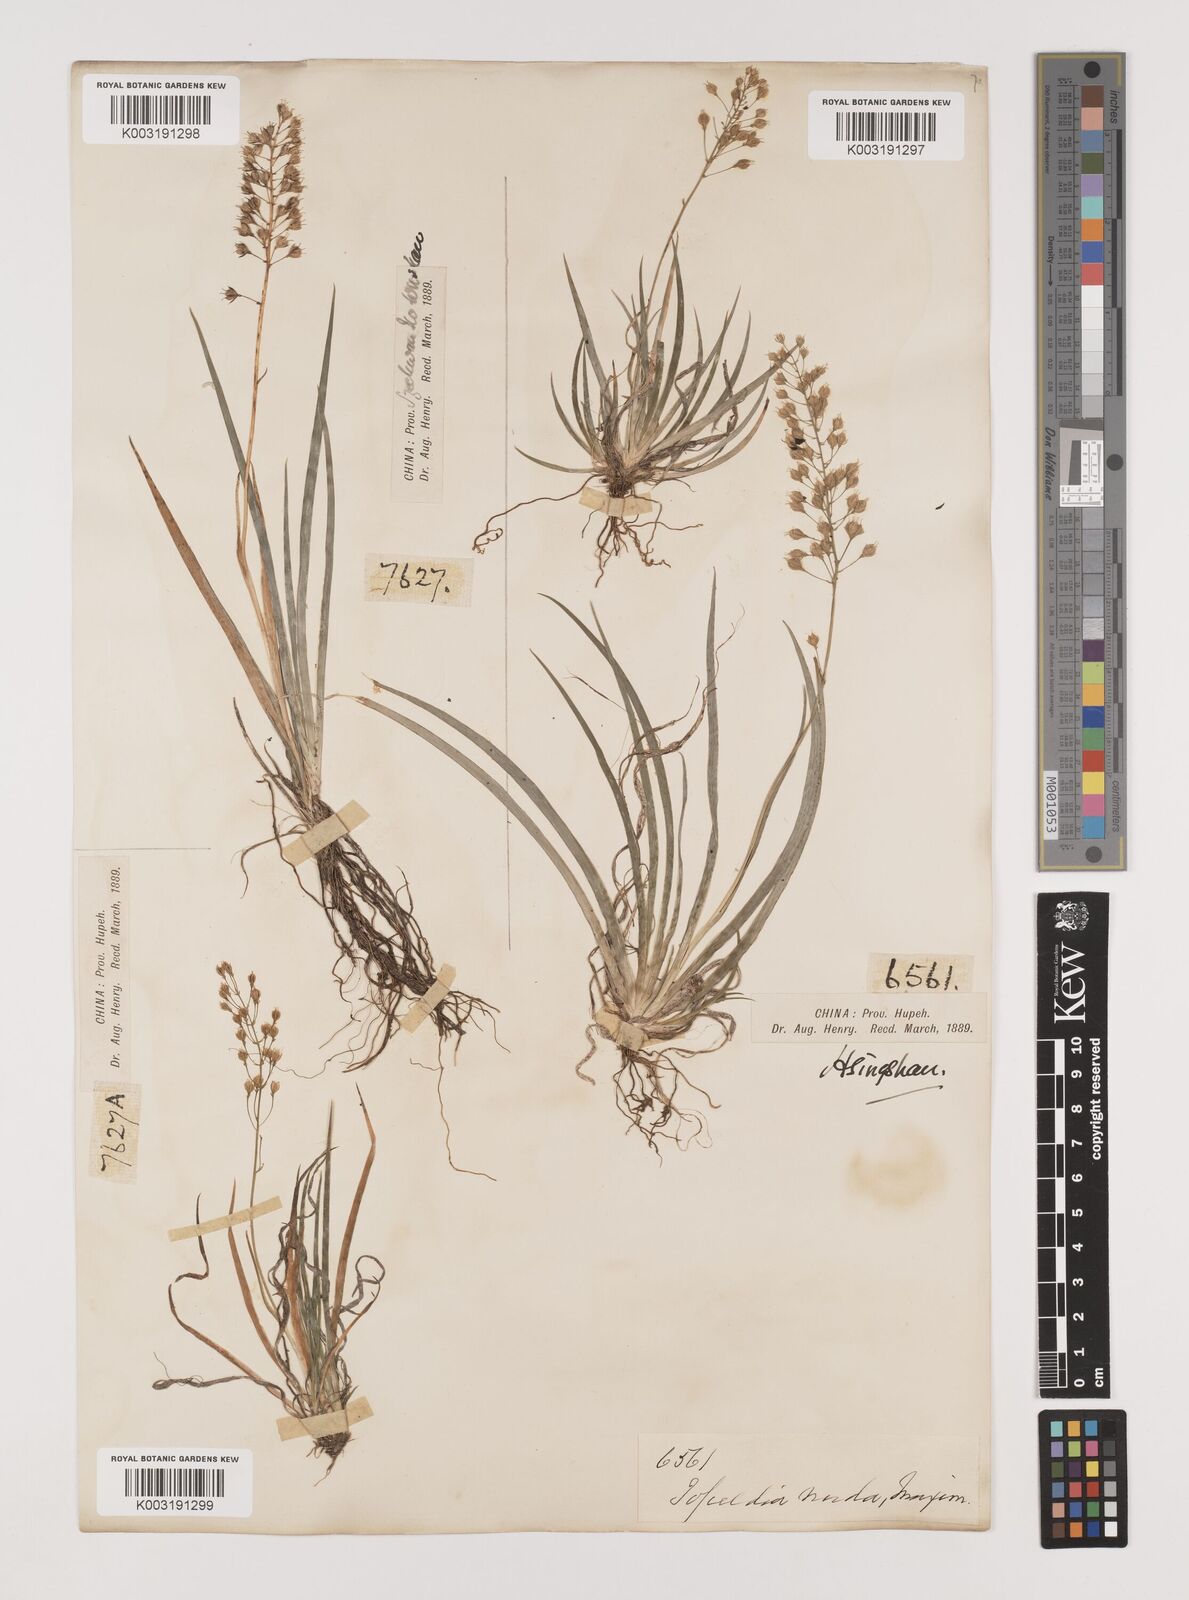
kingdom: Plantae
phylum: Tracheophyta
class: Liliopsida
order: Alismatales
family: Tofieldiaceae
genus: Tofieldia
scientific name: Tofieldia thibetica
